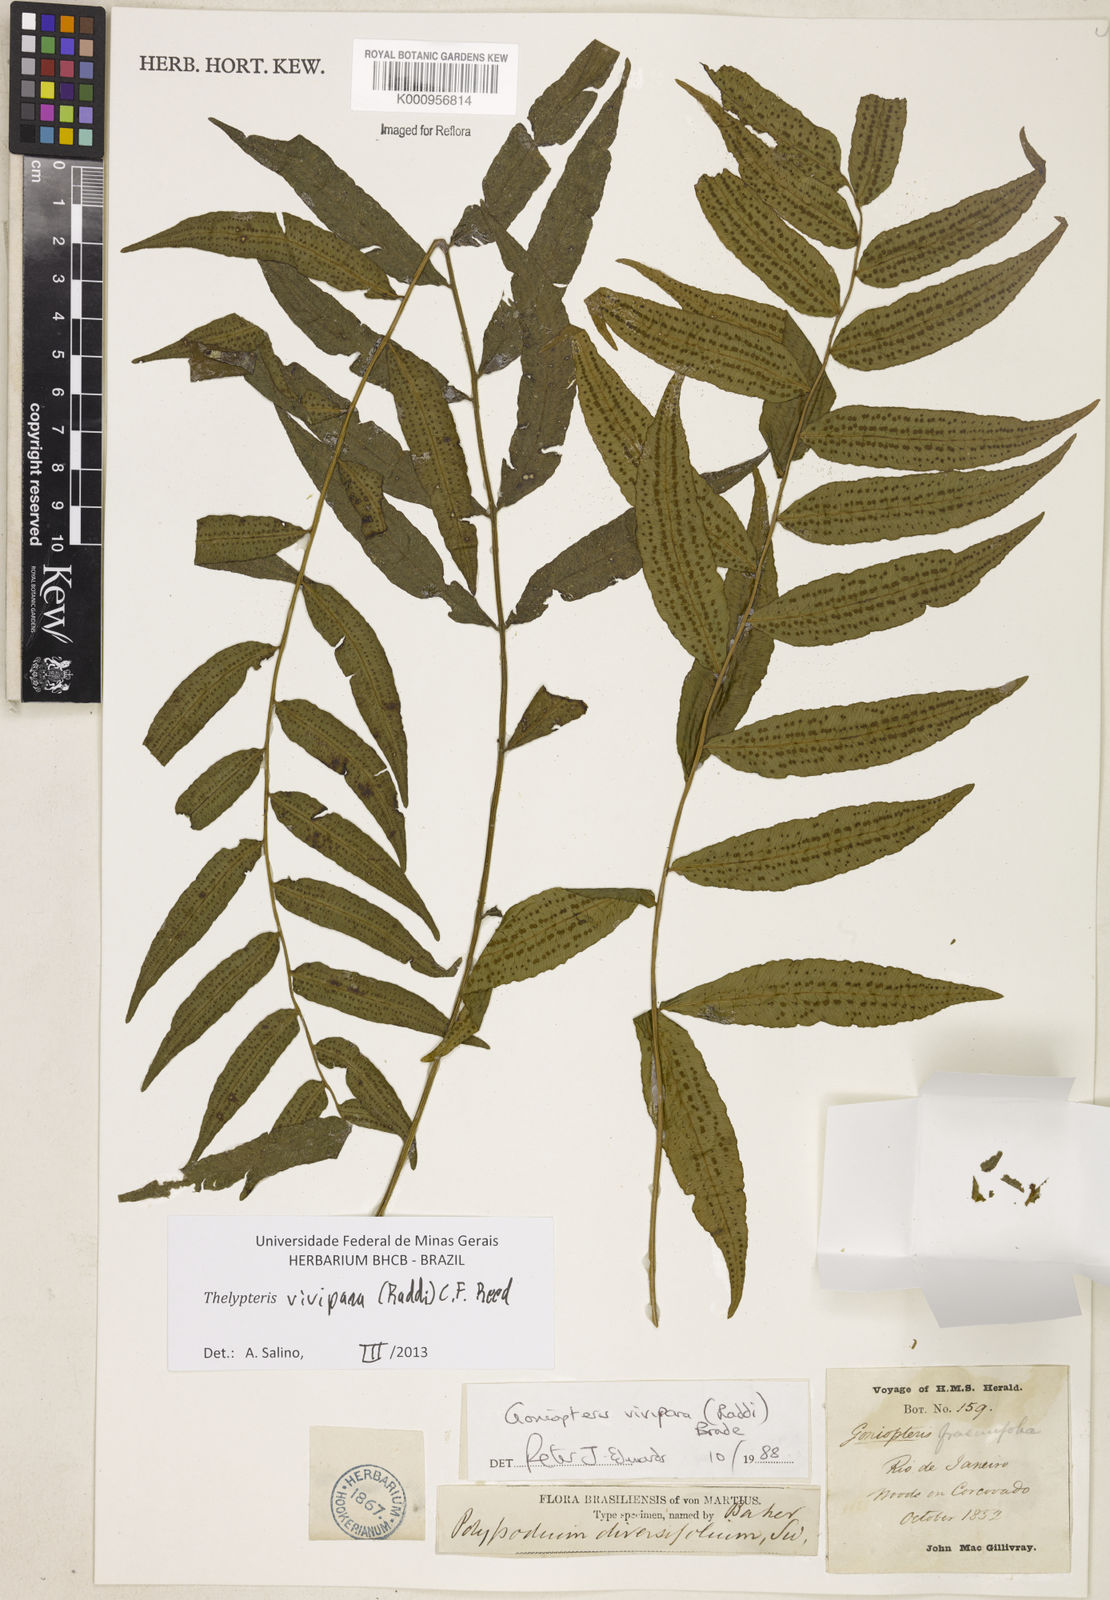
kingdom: Plantae
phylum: Tracheophyta
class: Polypodiopsida
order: Polypodiales
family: Thelypteridaceae
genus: Goniopteris
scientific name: Goniopteris vivipara
